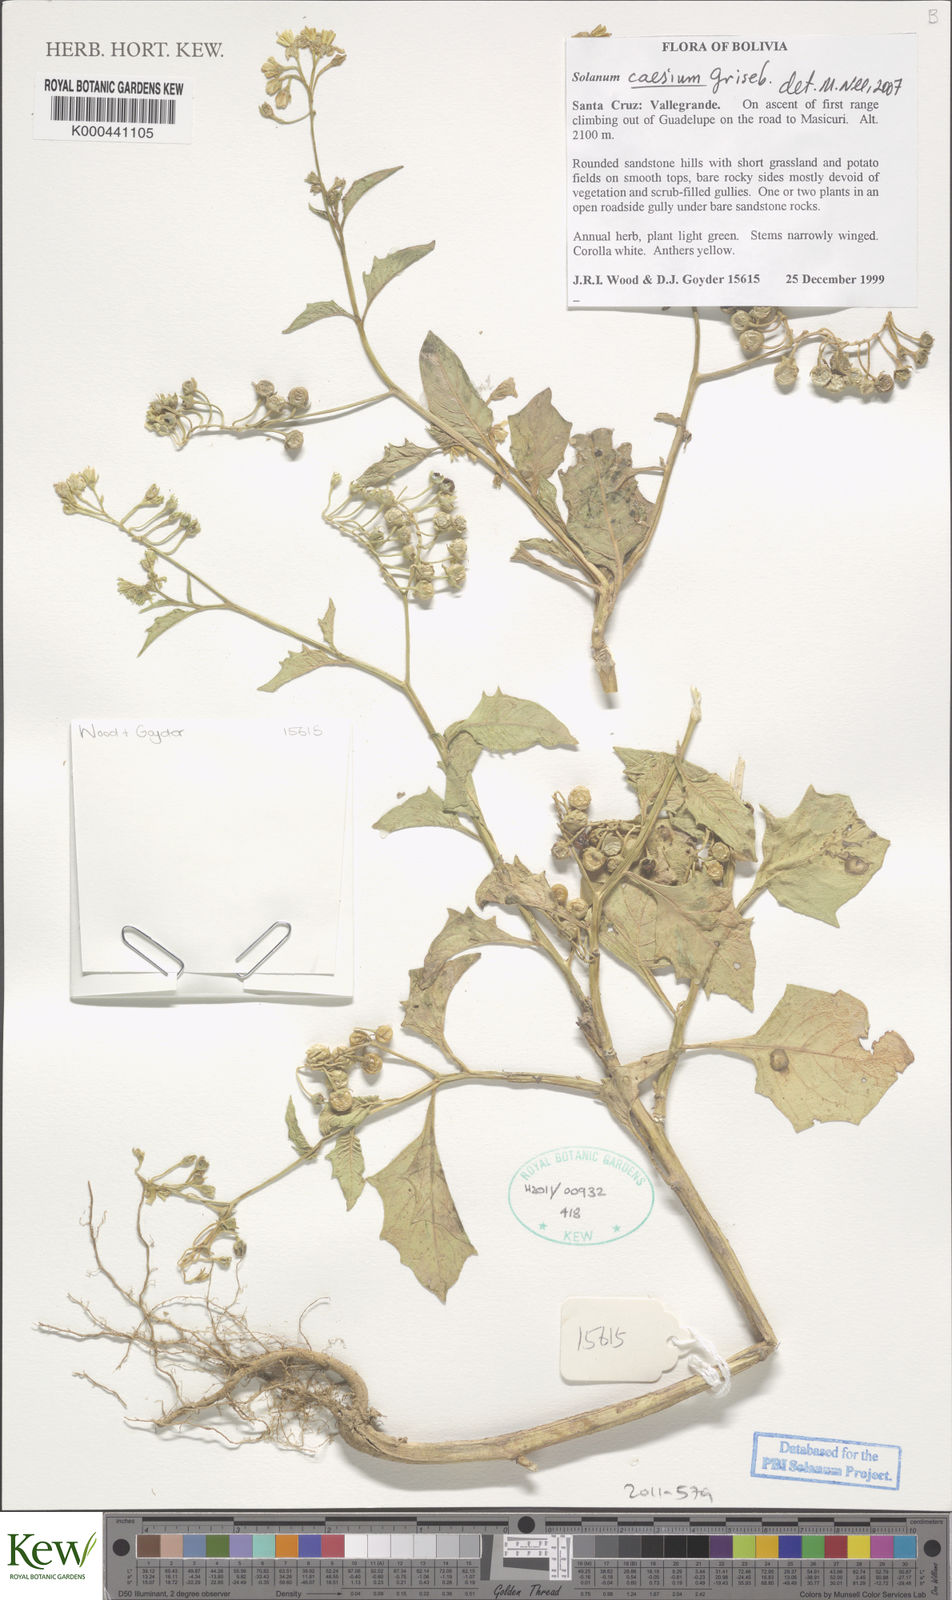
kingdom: Plantae
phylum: Tracheophyta
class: Magnoliopsida
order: Solanales
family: Solanaceae
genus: Solanum
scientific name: Solanum caesium
